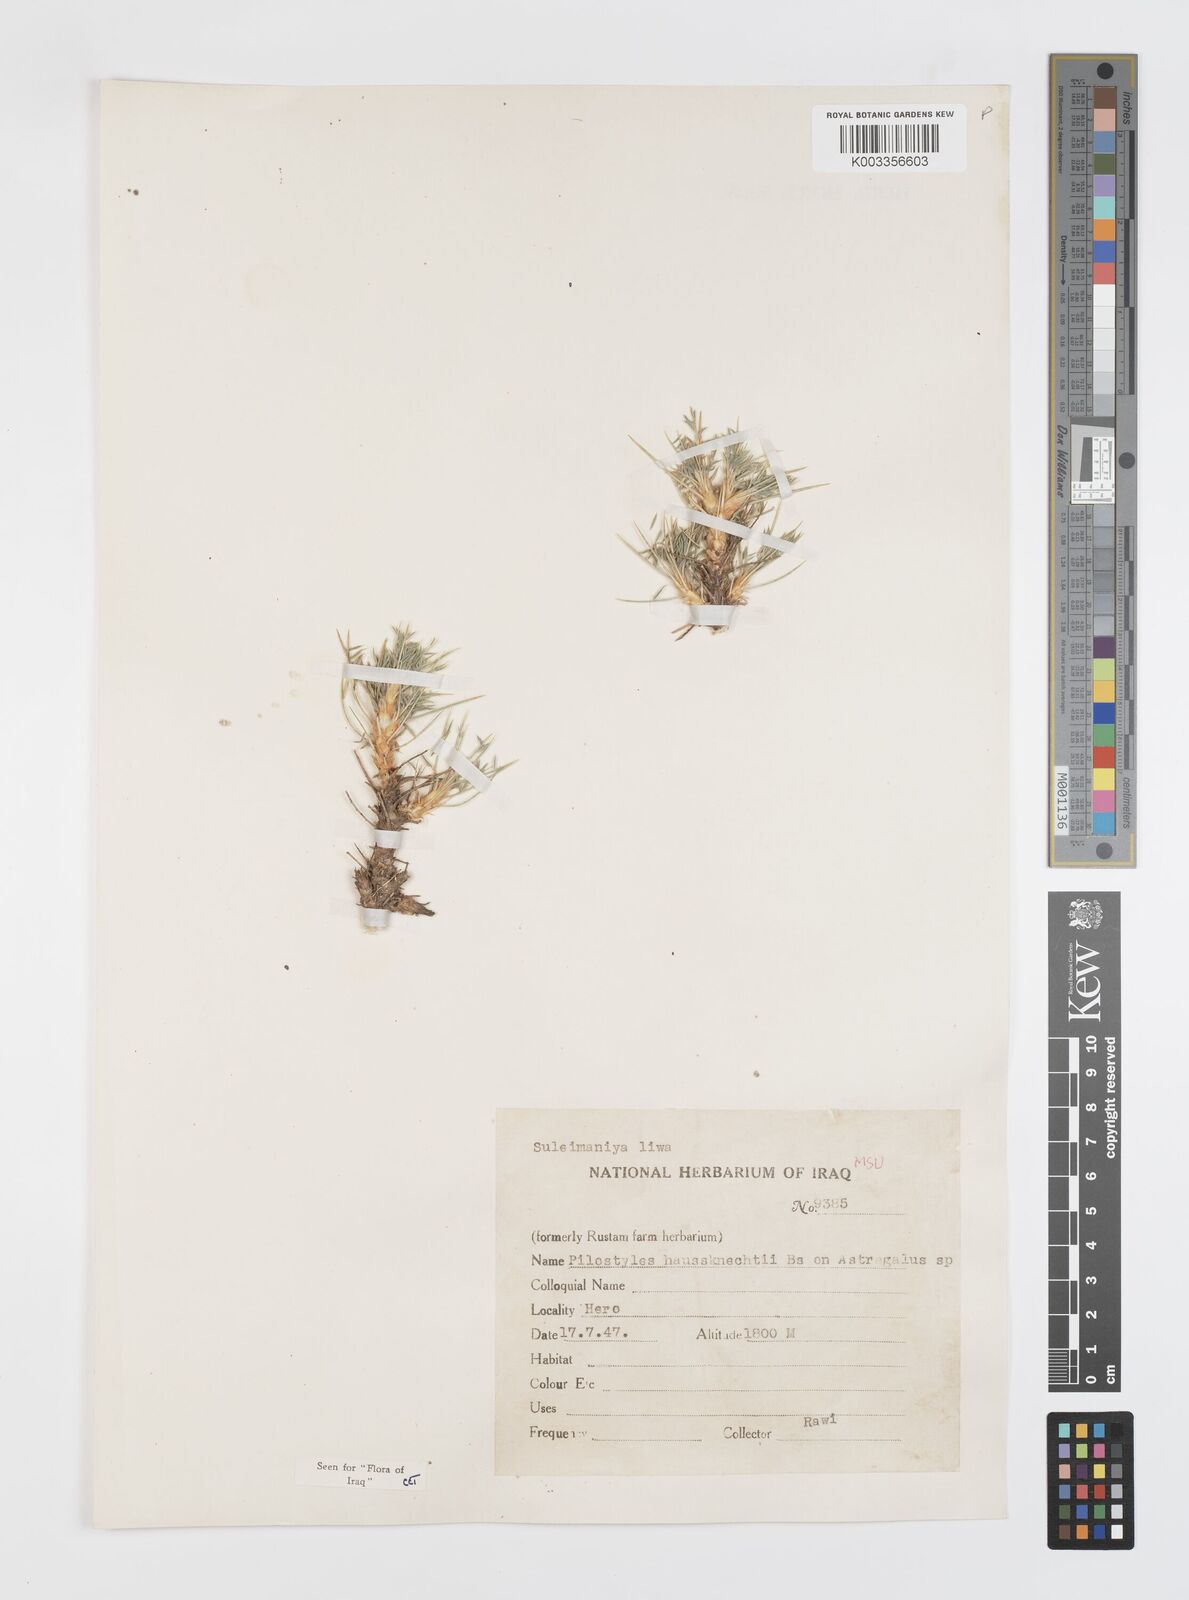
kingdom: Plantae
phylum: Tracheophyta
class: Magnoliopsida
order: Cucurbitales
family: Apodanthaceae
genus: Pilostyles
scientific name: Pilostyles haussknechtii
